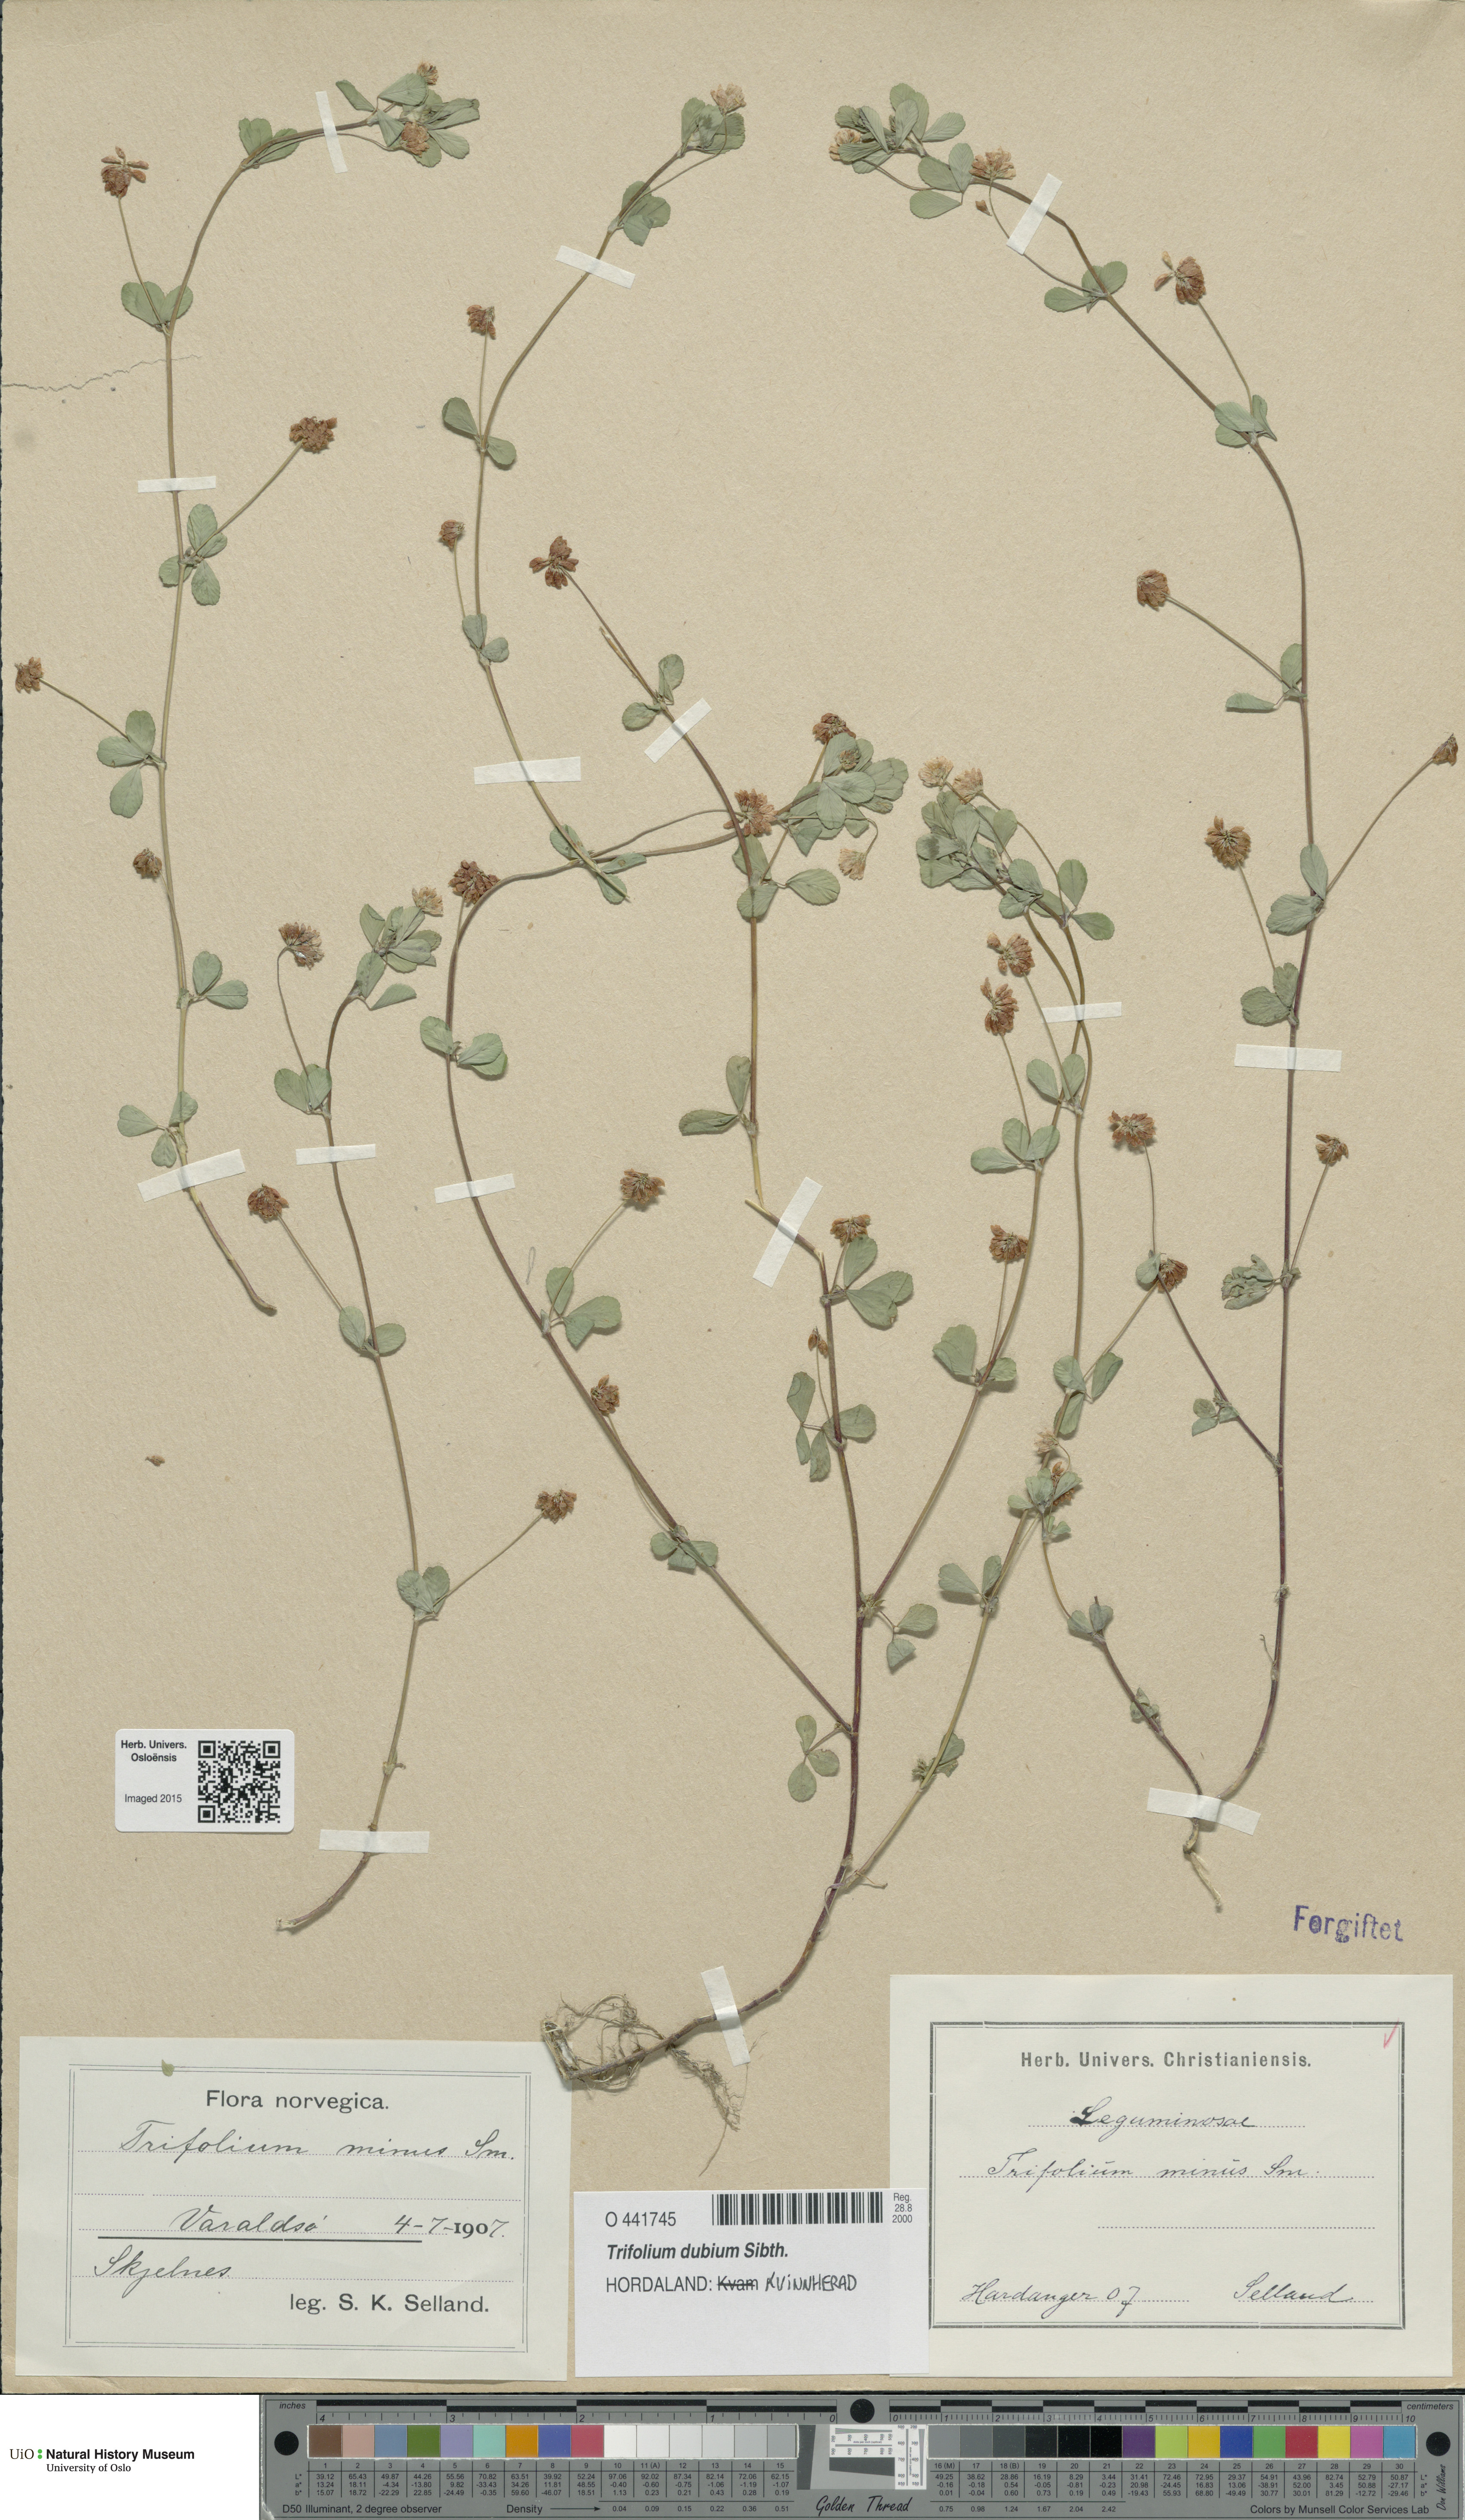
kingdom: Plantae
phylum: Tracheophyta
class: Magnoliopsida
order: Fabales
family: Fabaceae
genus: Trifolium
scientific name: Trifolium dubium
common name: Suckling clover
